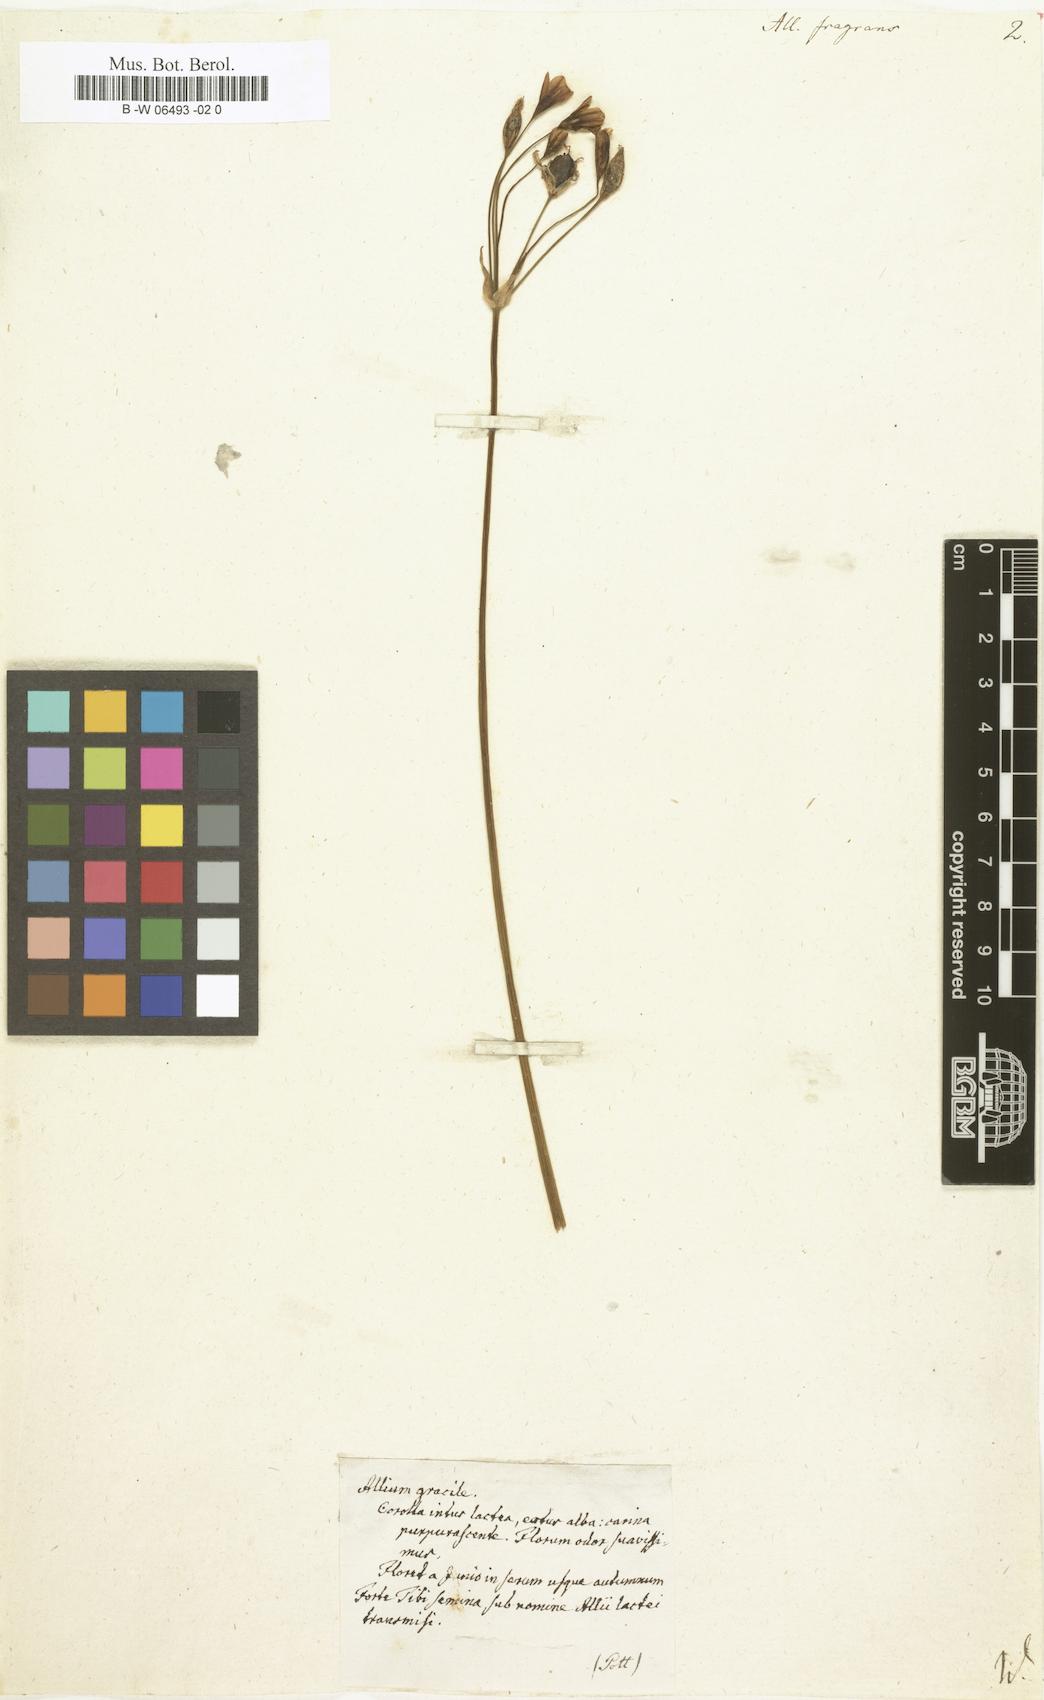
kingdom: Plantae
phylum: Tracheophyta
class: Liliopsida
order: Asparagales
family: Amaryllidaceae
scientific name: Amaryllidaceae
